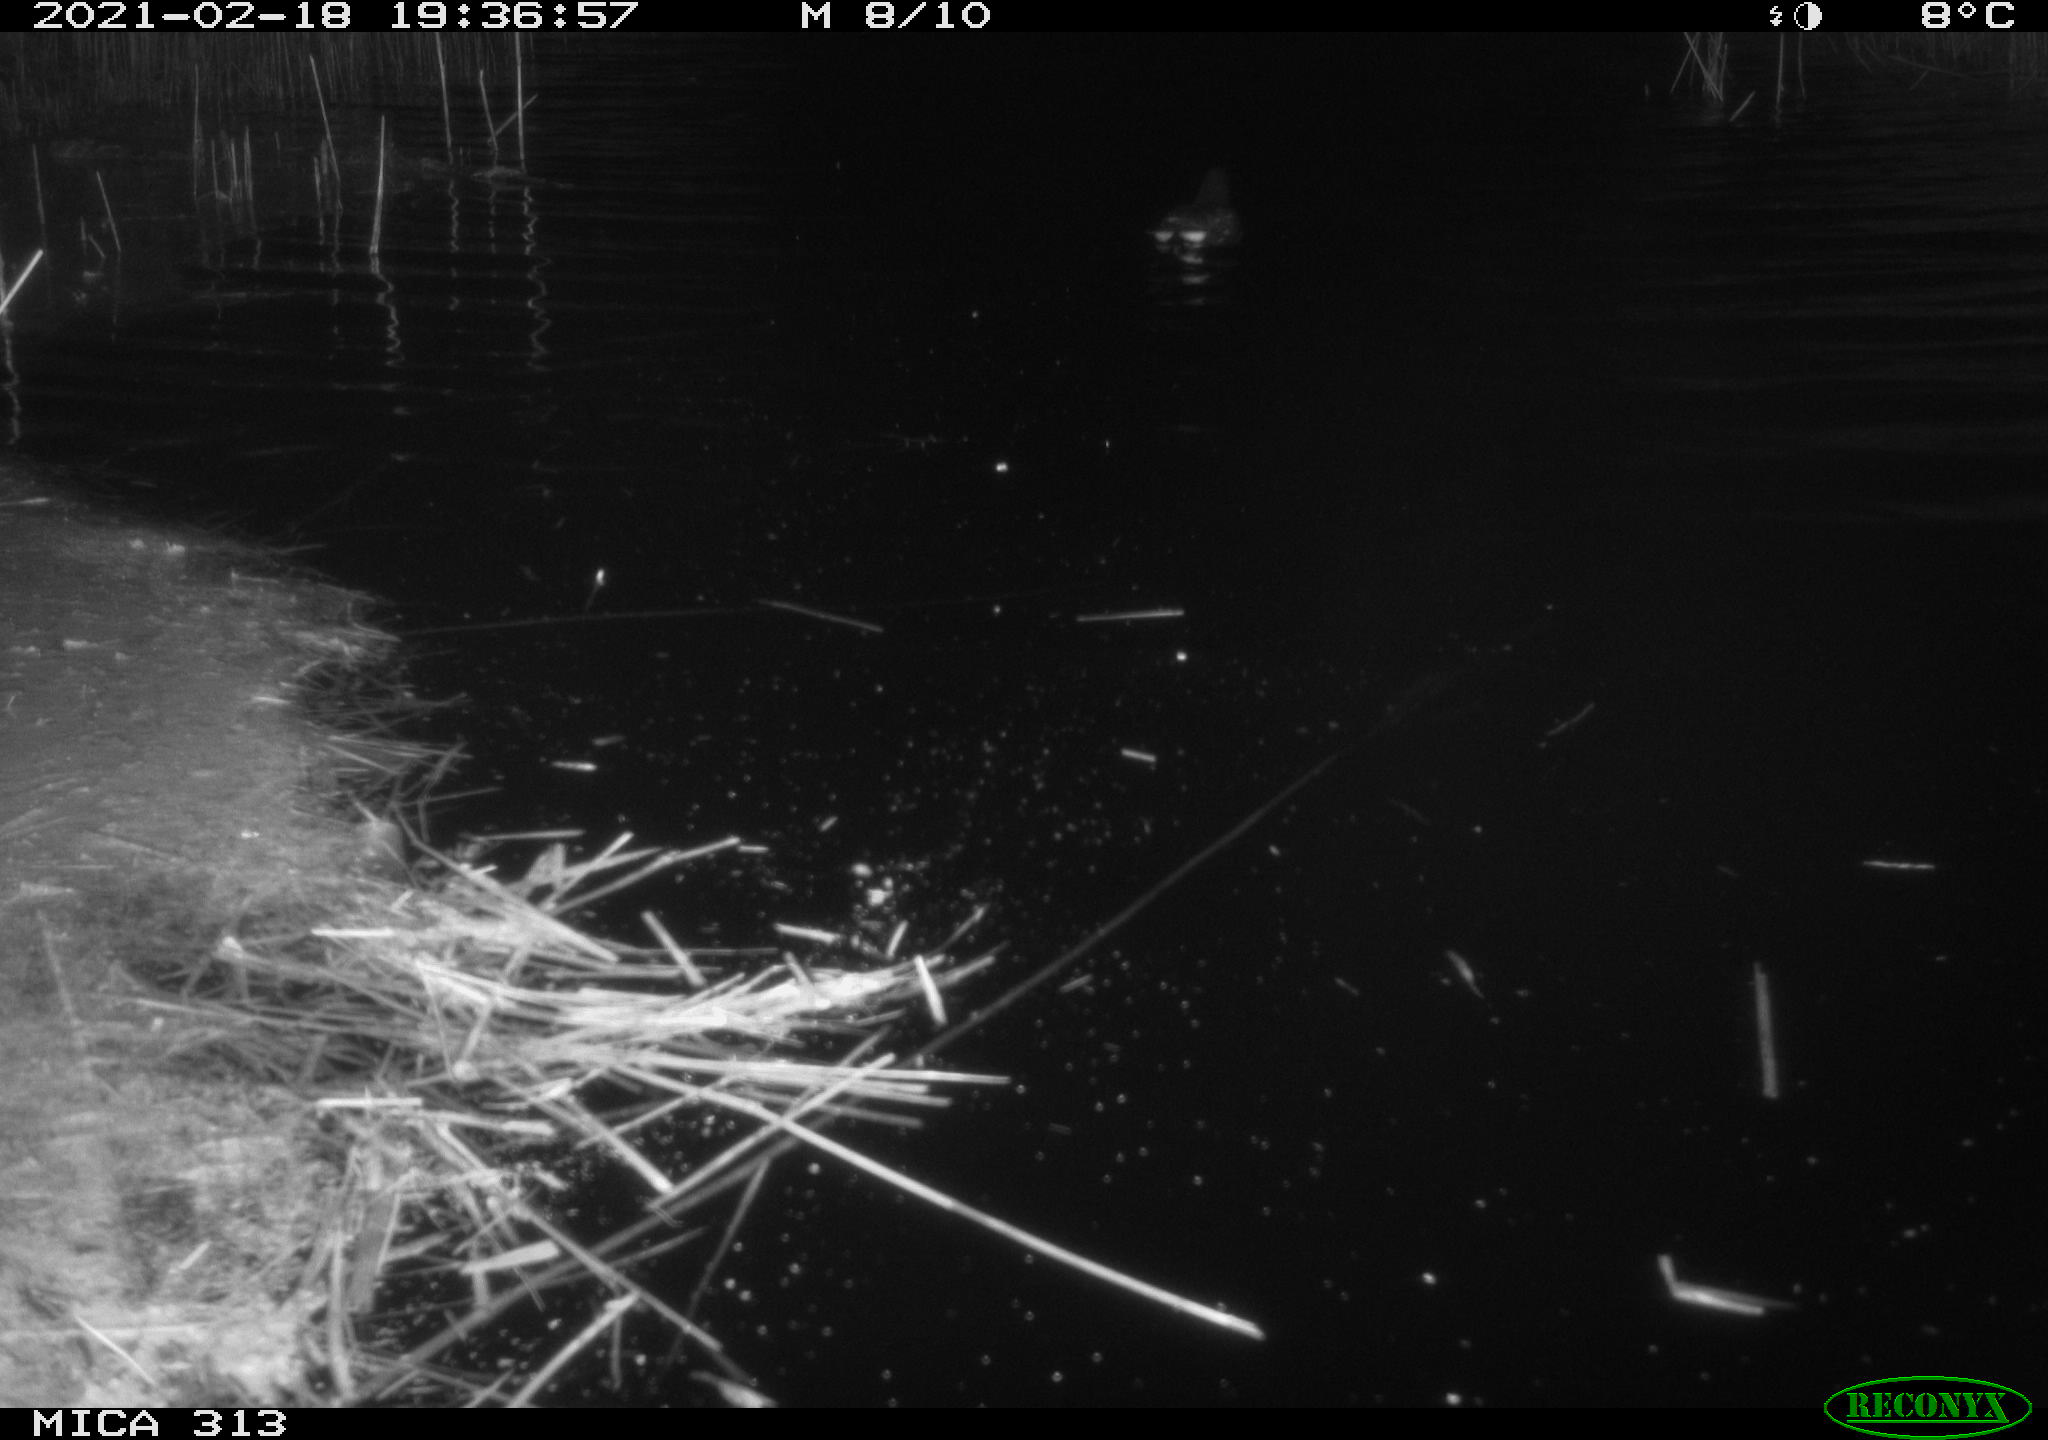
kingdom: Animalia
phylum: Chordata
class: Aves
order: Gruiformes
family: Rallidae
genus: Gallinula
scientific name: Gallinula chloropus
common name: Common moorhen
